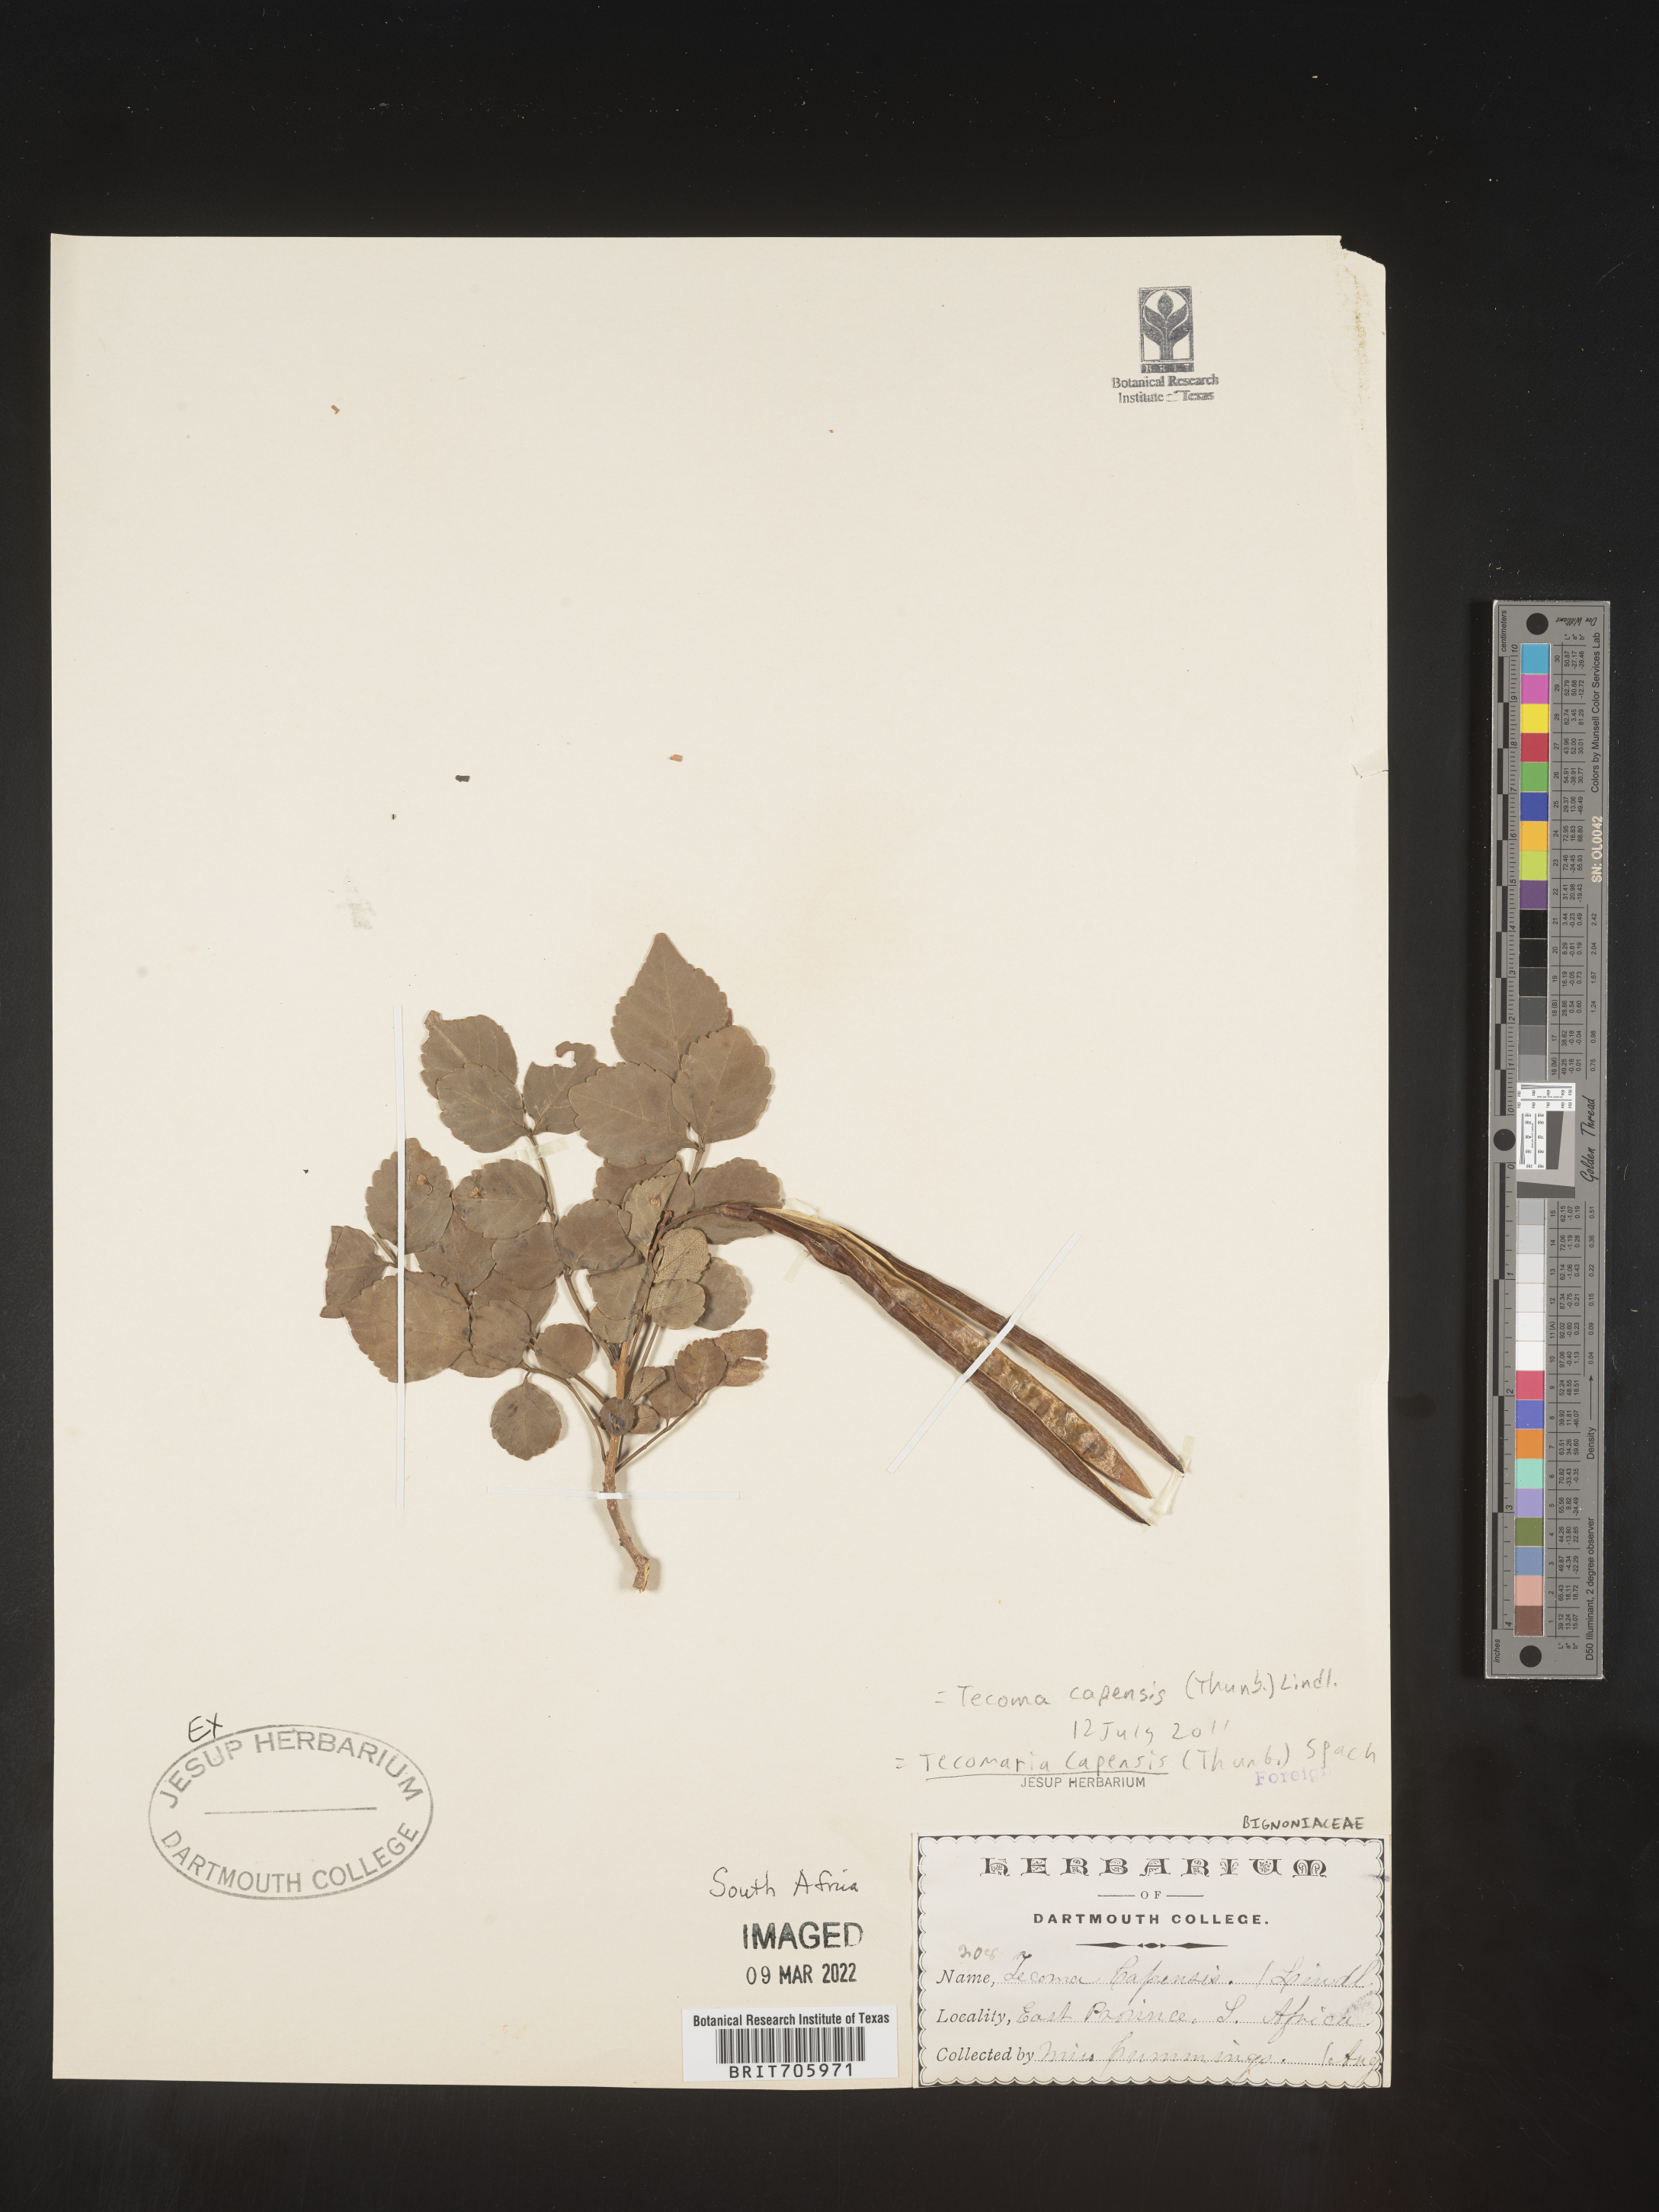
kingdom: Plantae
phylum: Tracheophyta
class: Magnoliopsida
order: Lamiales
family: Bignoniaceae
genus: Tecoma
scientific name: Tecoma
